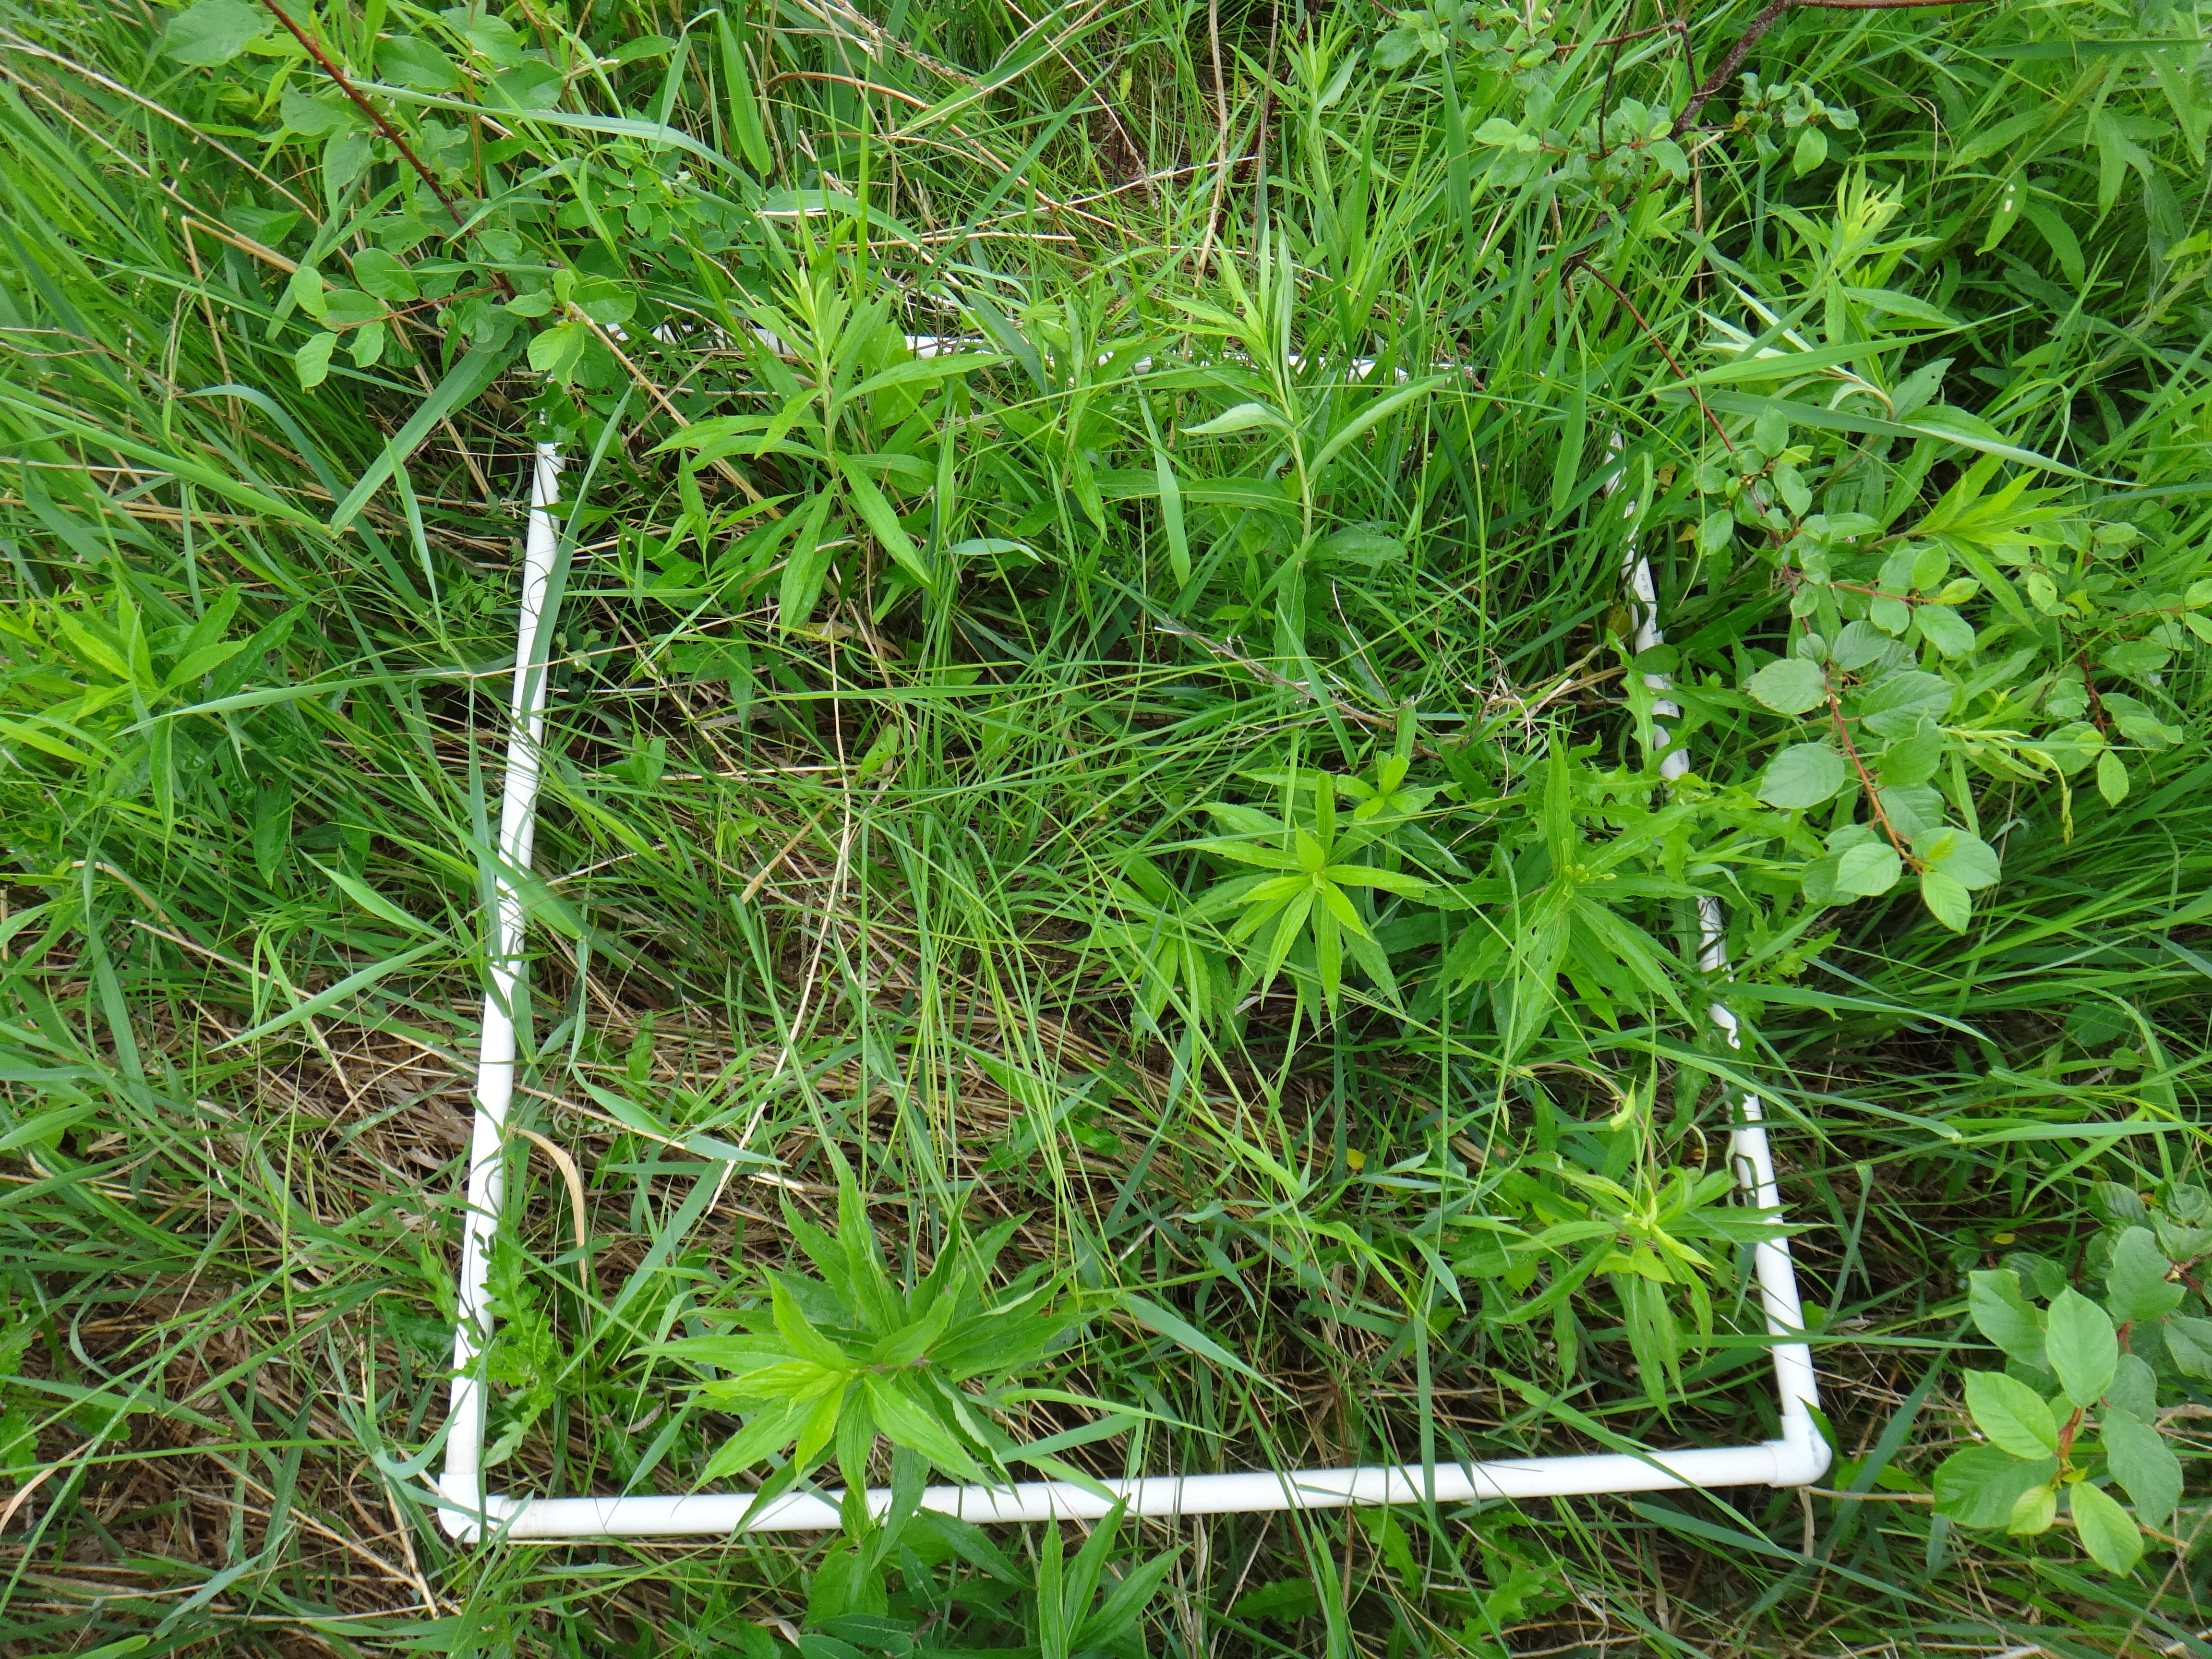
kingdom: Plantae
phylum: Tracheophyta
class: Liliopsida
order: Poales
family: Poaceae
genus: Phalaris
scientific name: Phalaris arundinacea
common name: Reed canary-grass
